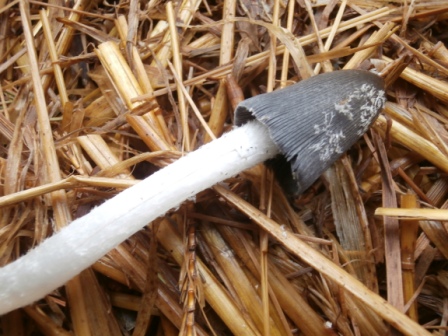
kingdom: Fungi
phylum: Basidiomycota
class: Agaricomycetes
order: Agaricales
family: Psathyrellaceae
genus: Coprinopsis
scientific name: Coprinopsis macrocephala
